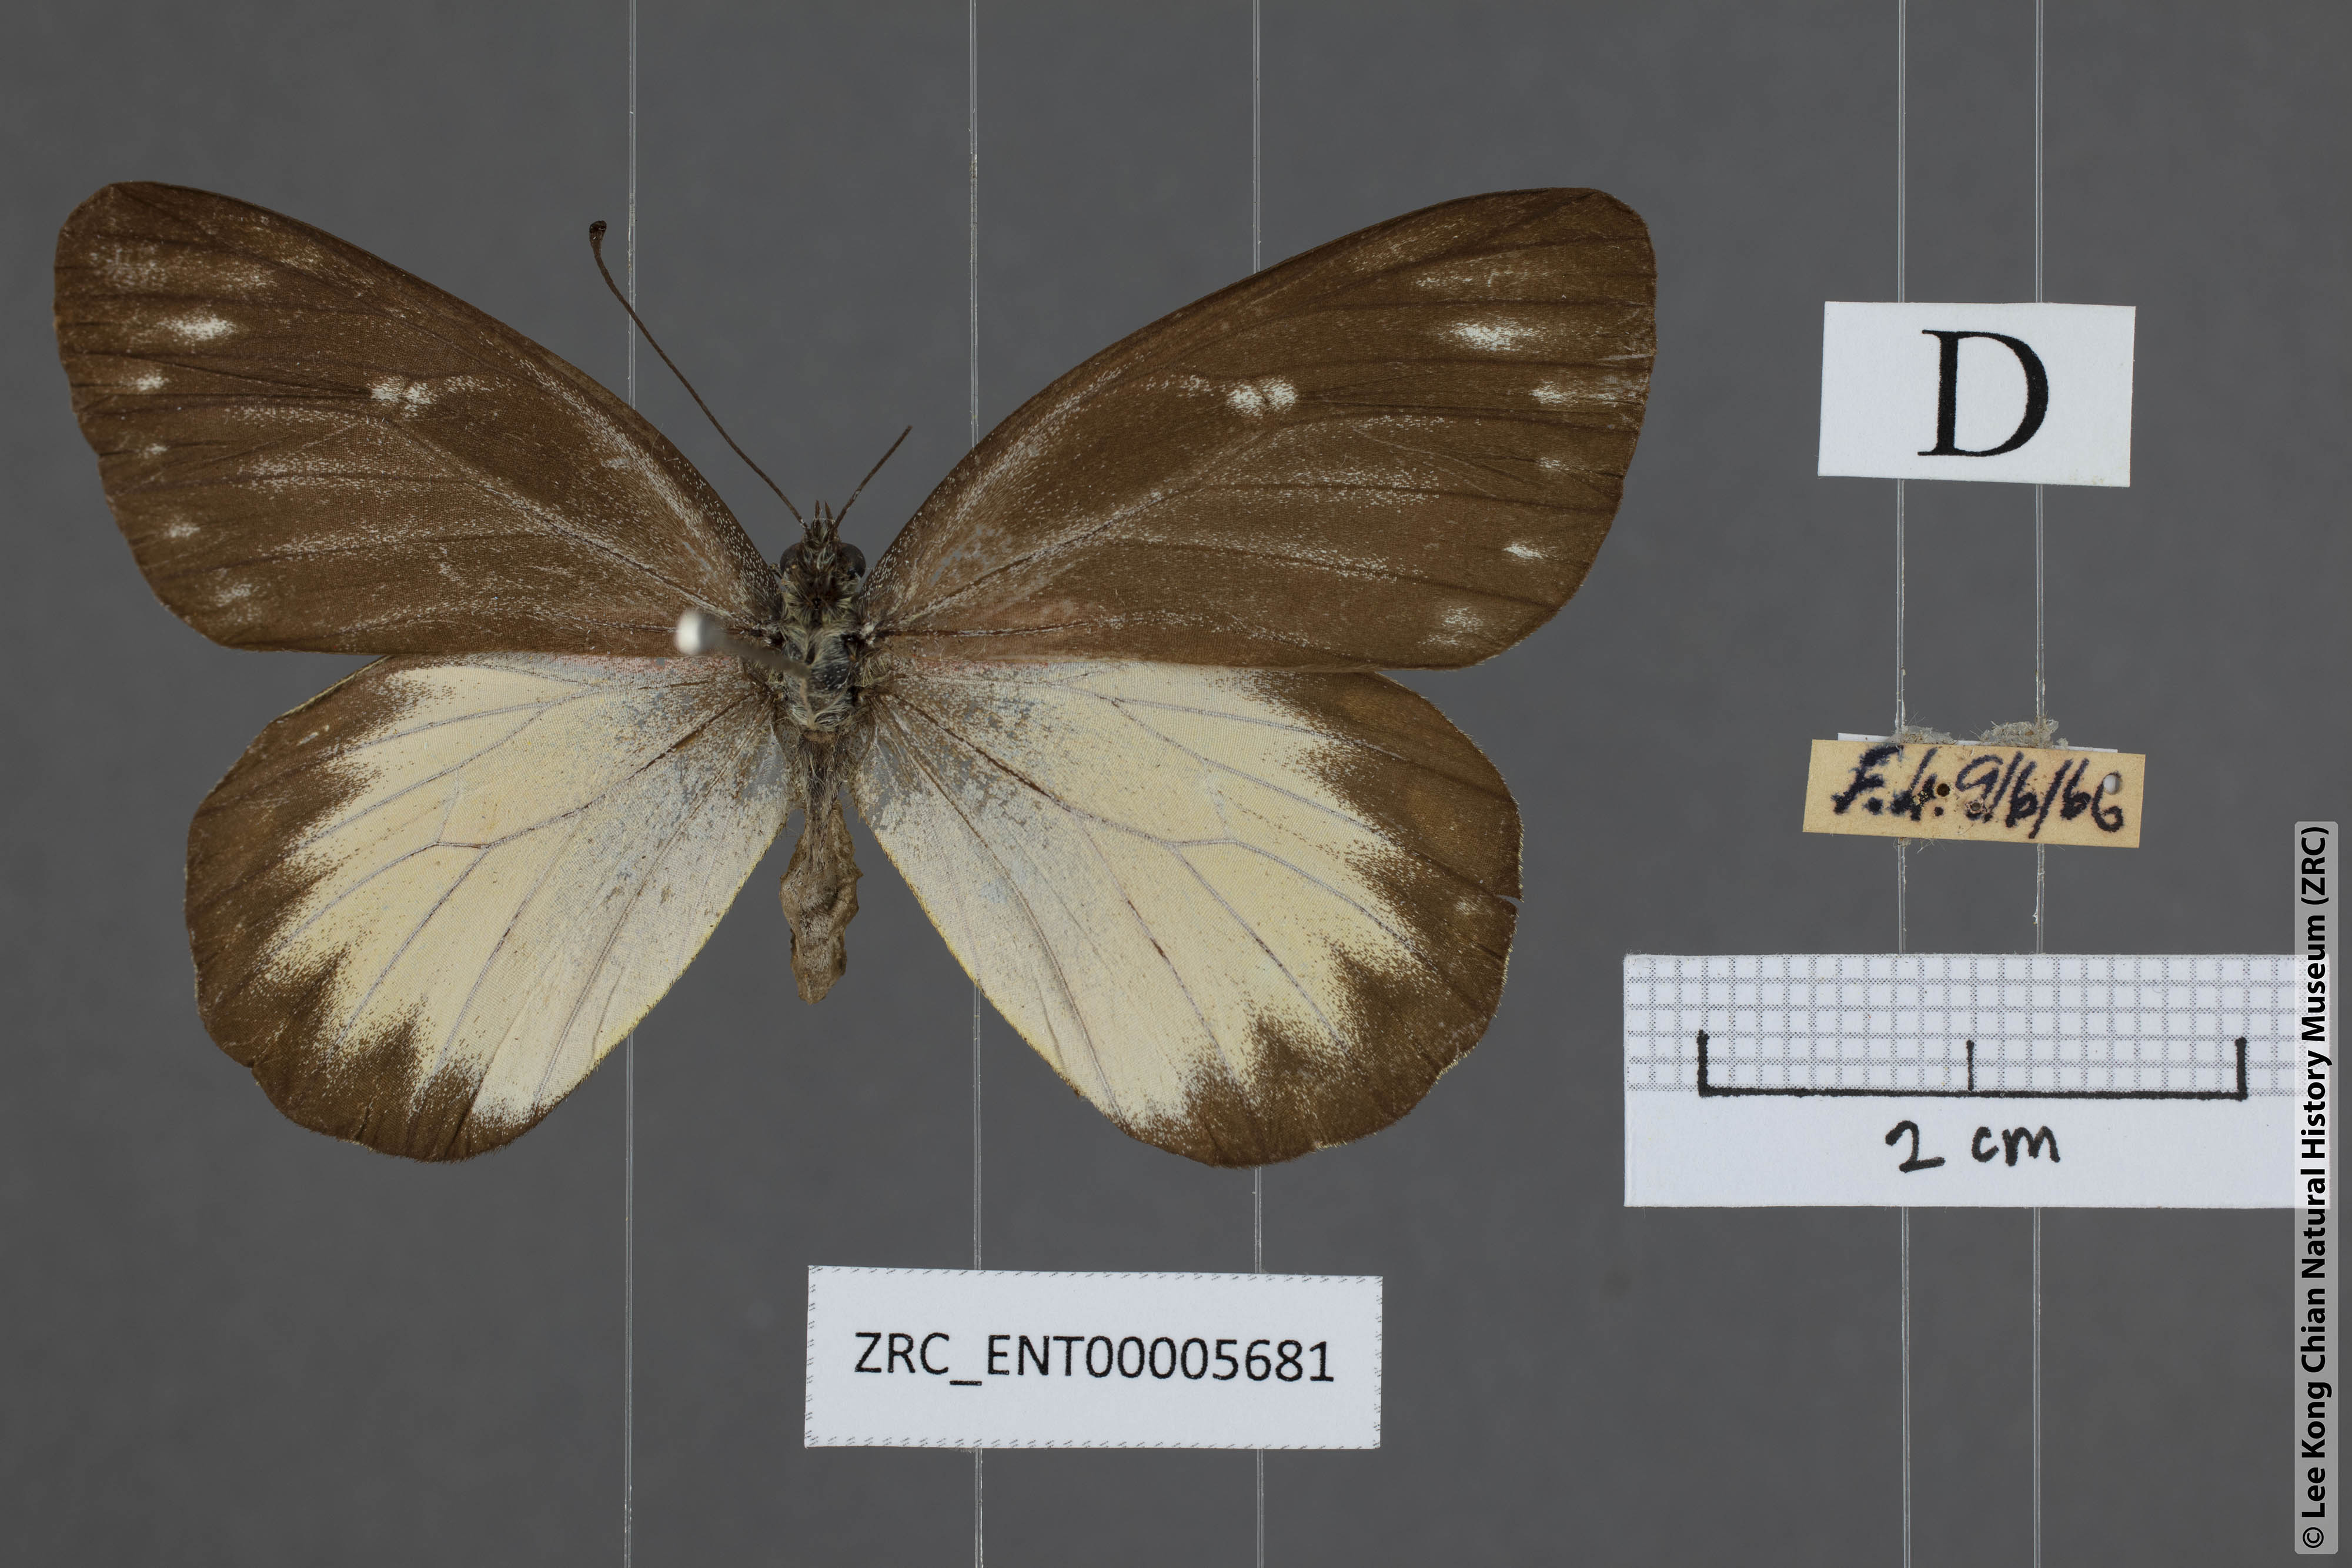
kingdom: Animalia
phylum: Arthropoda
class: Insecta
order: Lepidoptera
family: Pieridae
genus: Delias
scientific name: Delias descombesi
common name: Red-spot jezebel
